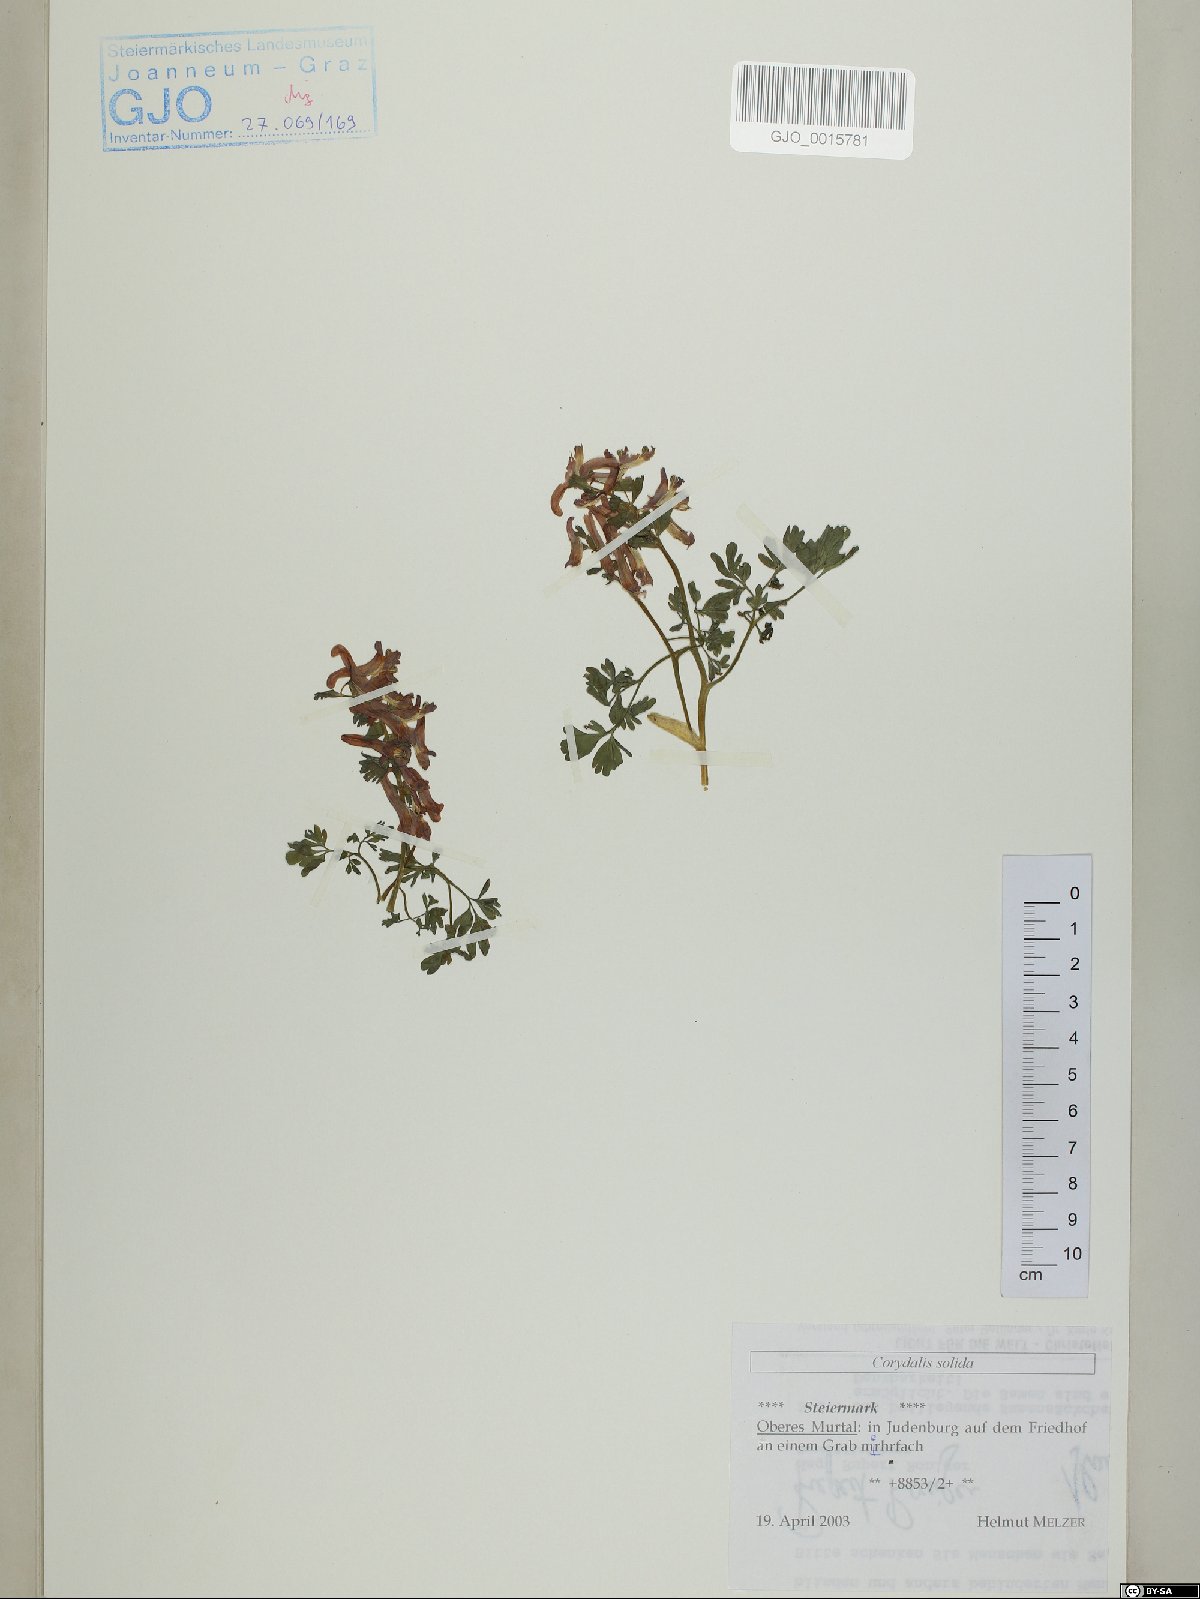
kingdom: Plantae
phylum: Tracheophyta
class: Magnoliopsida
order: Ranunculales
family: Papaveraceae
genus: Corydalis
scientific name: Corydalis solida
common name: Bird-in-a-bush
